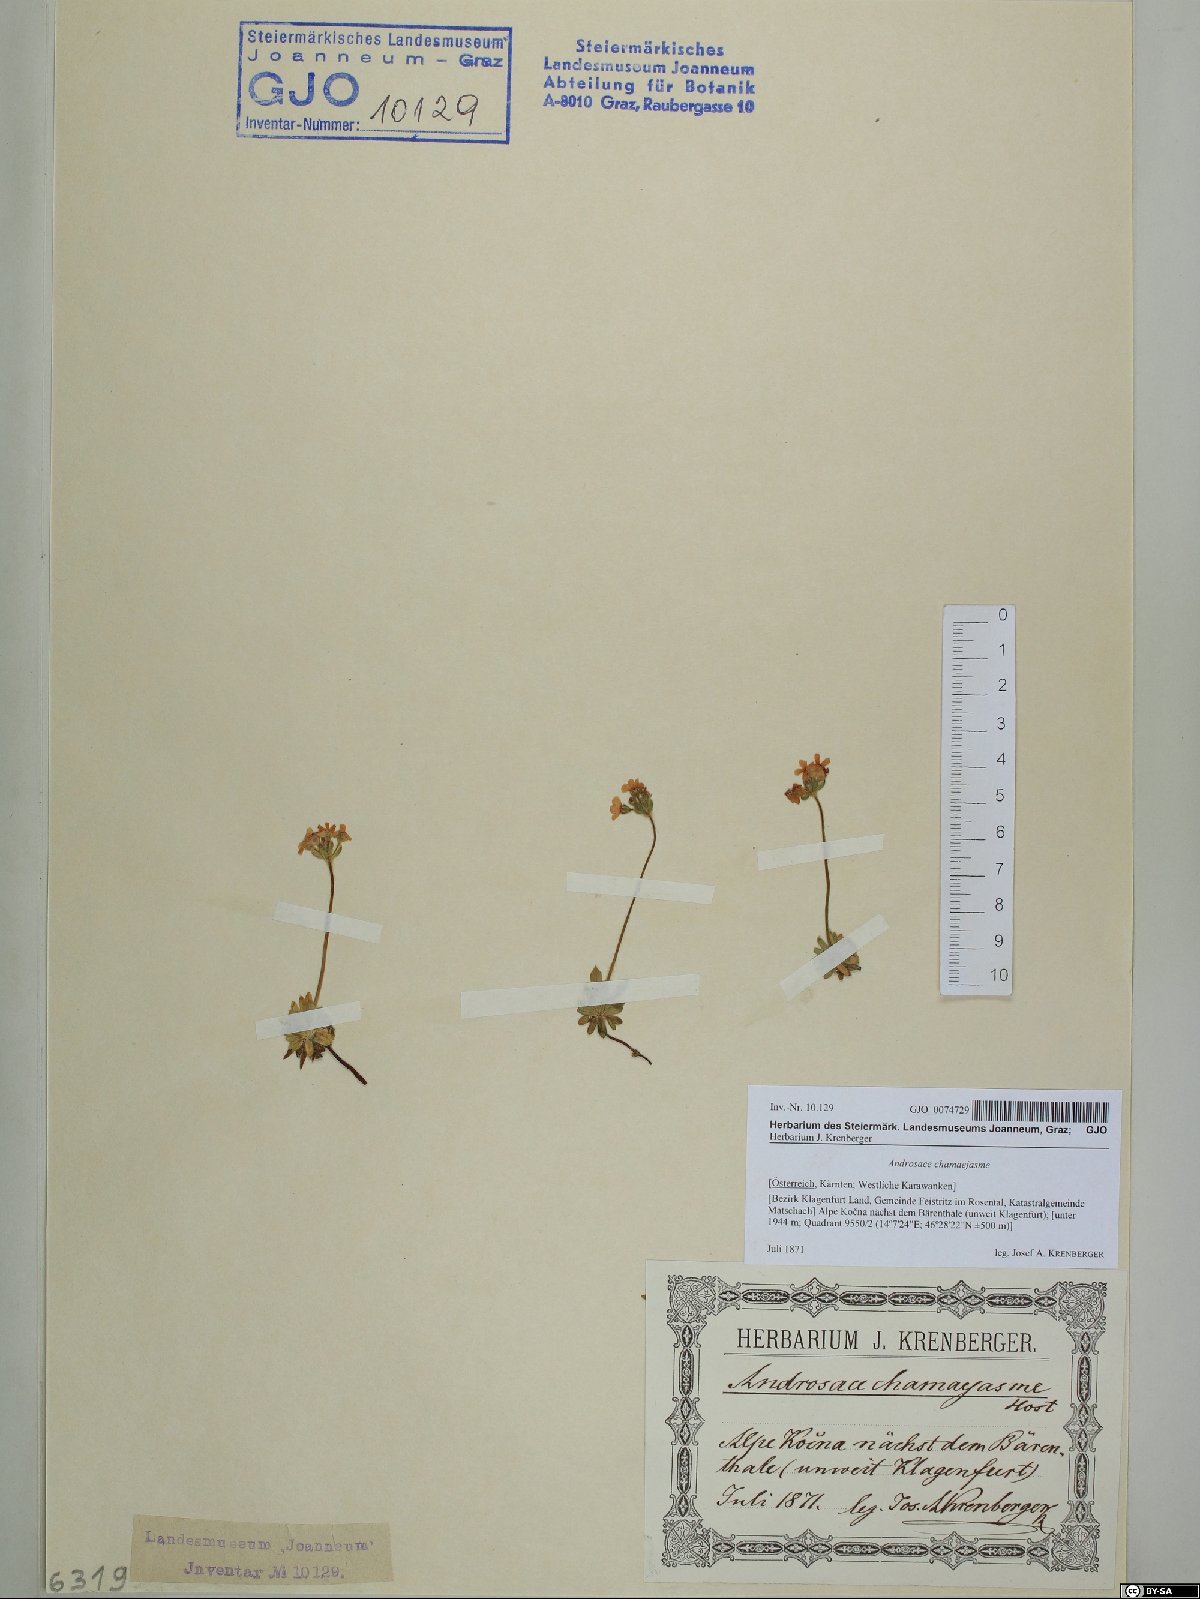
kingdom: Plantae
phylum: Tracheophyta
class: Magnoliopsida
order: Ericales
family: Primulaceae
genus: Androsace
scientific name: Androsace chamaejasme
